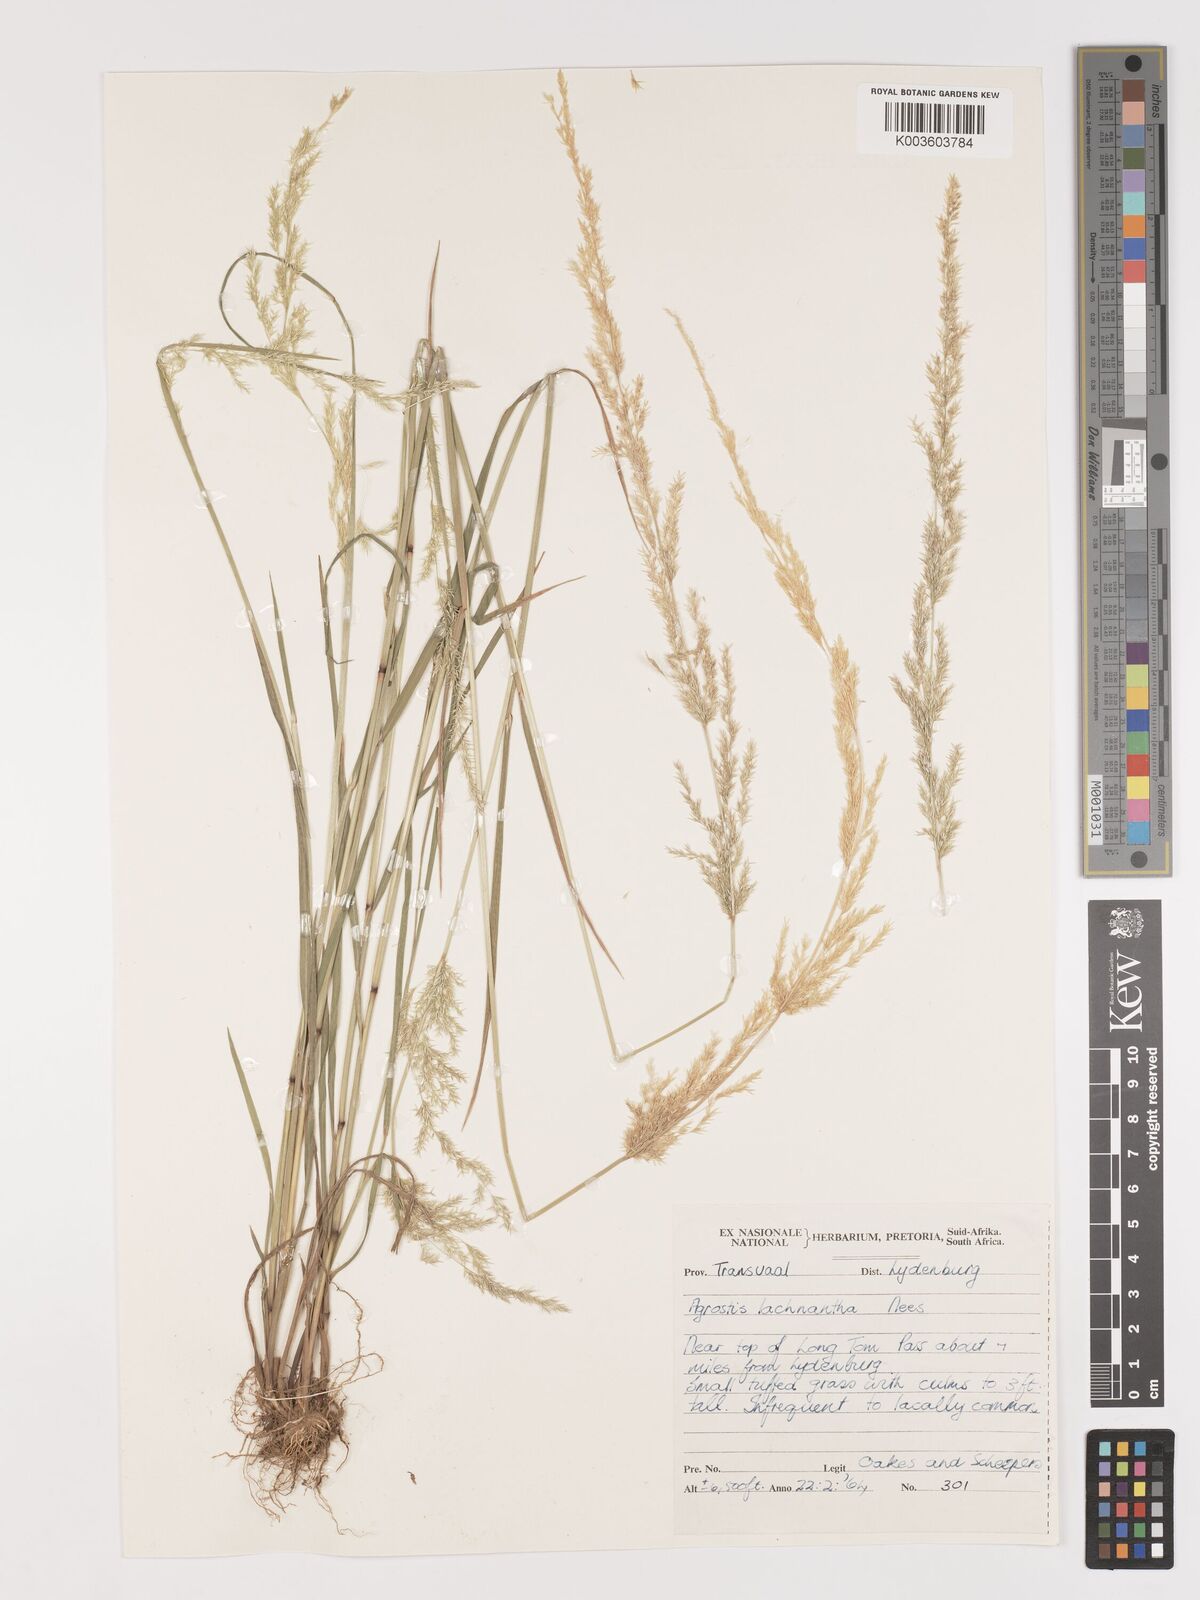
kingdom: Plantae
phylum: Tracheophyta
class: Liliopsida
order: Poales
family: Poaceae
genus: Lachnagrostis
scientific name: Lachnagrostis lachnantha
